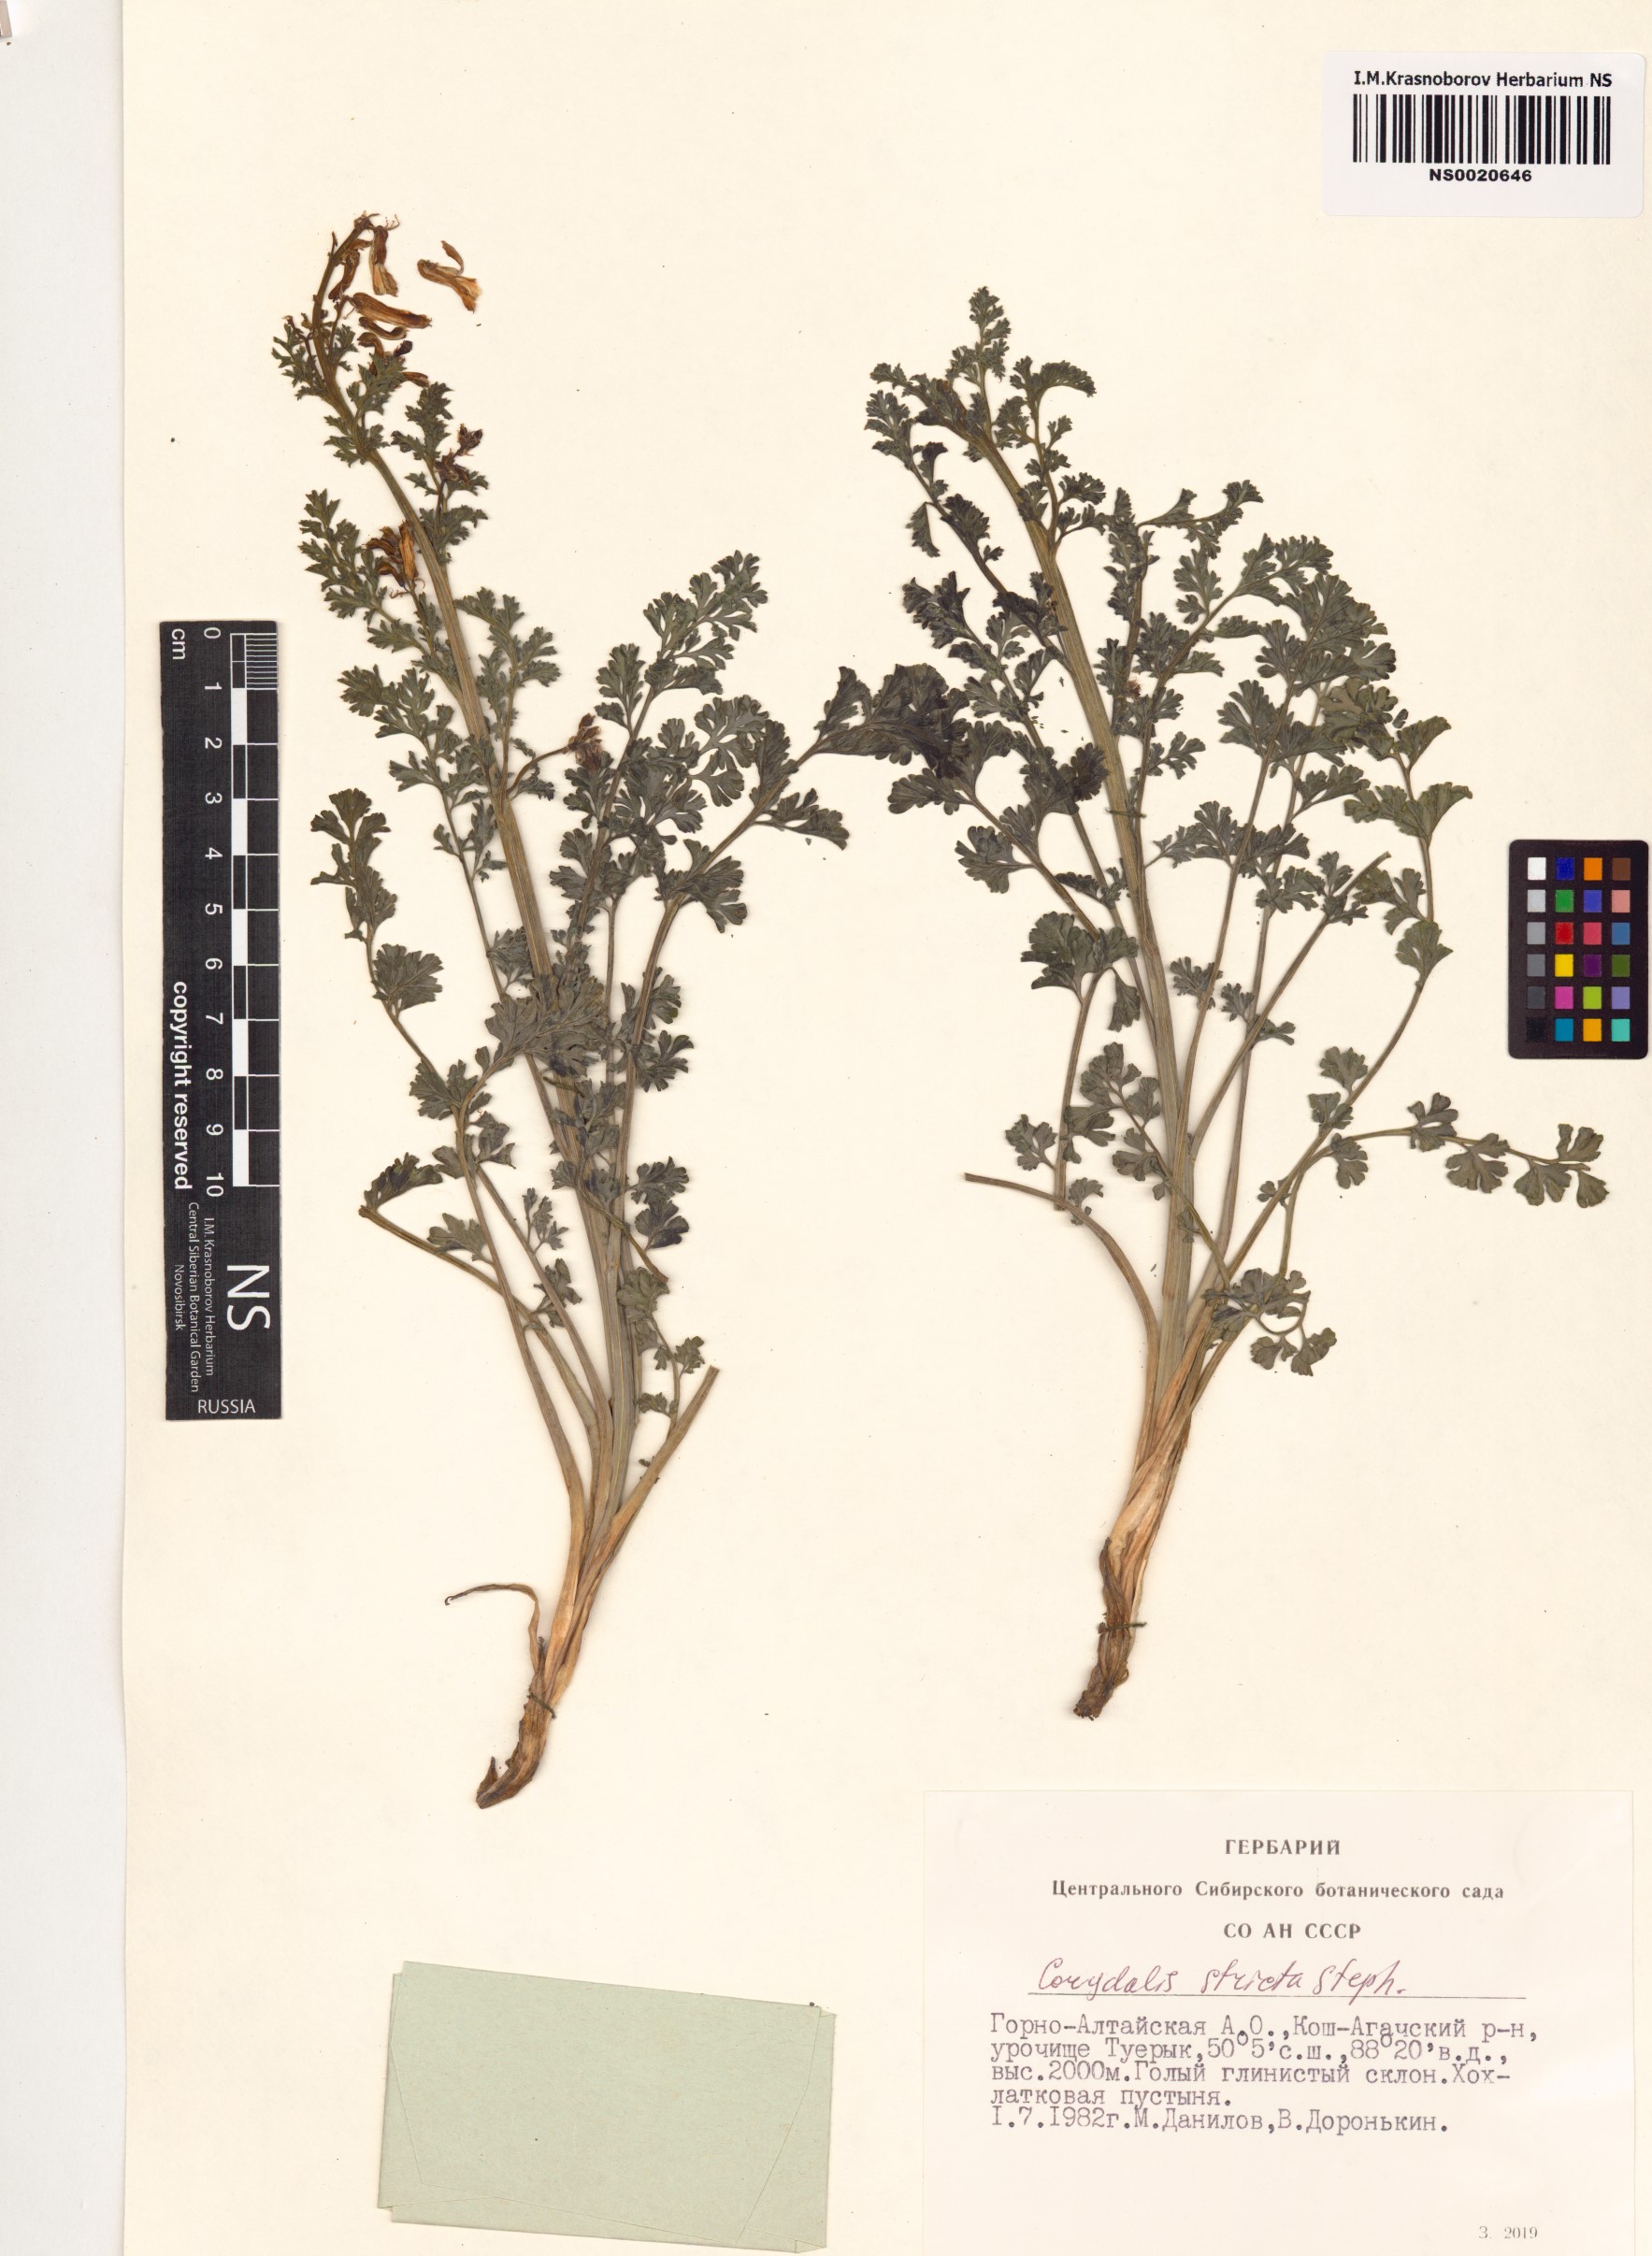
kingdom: Plantae
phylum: Tracheophyta
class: Magnoliopsida
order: Ranunculales
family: Papaveraceae
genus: Corydalis
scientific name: Corydalis stricta
